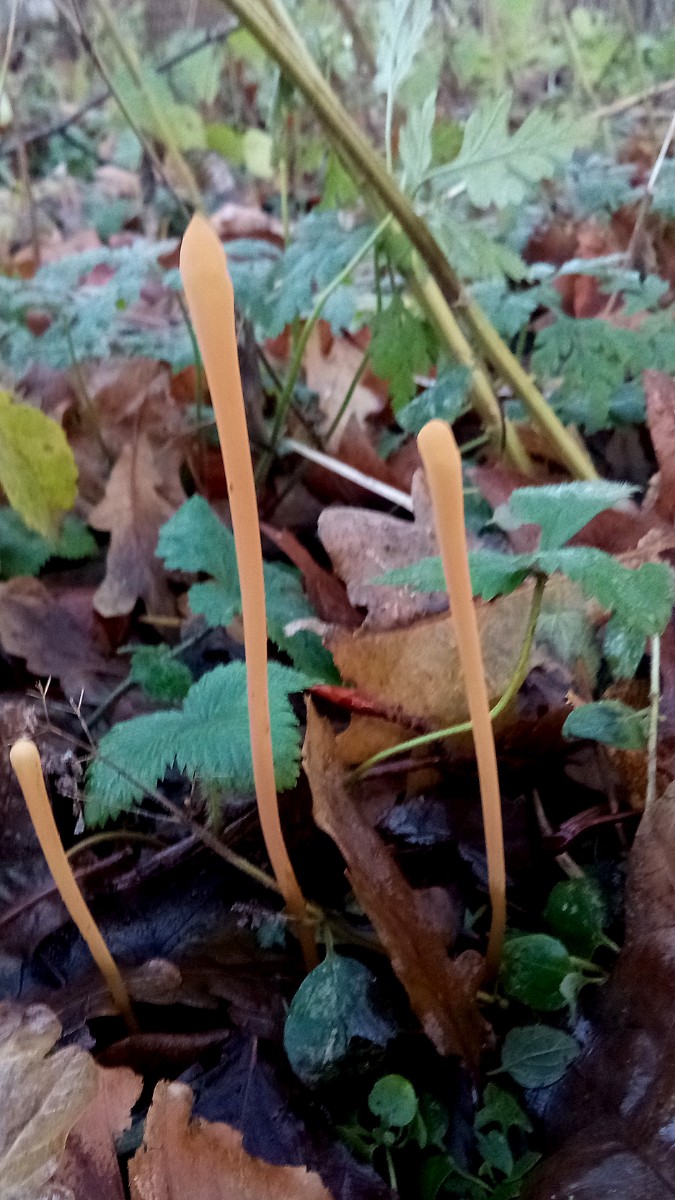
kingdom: Fungi
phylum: Basidiomycota
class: Agaricomycetes
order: Agaricales
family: Typhulaceae
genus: Typhula
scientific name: Typhula fistulosa
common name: pibet rørkølle
